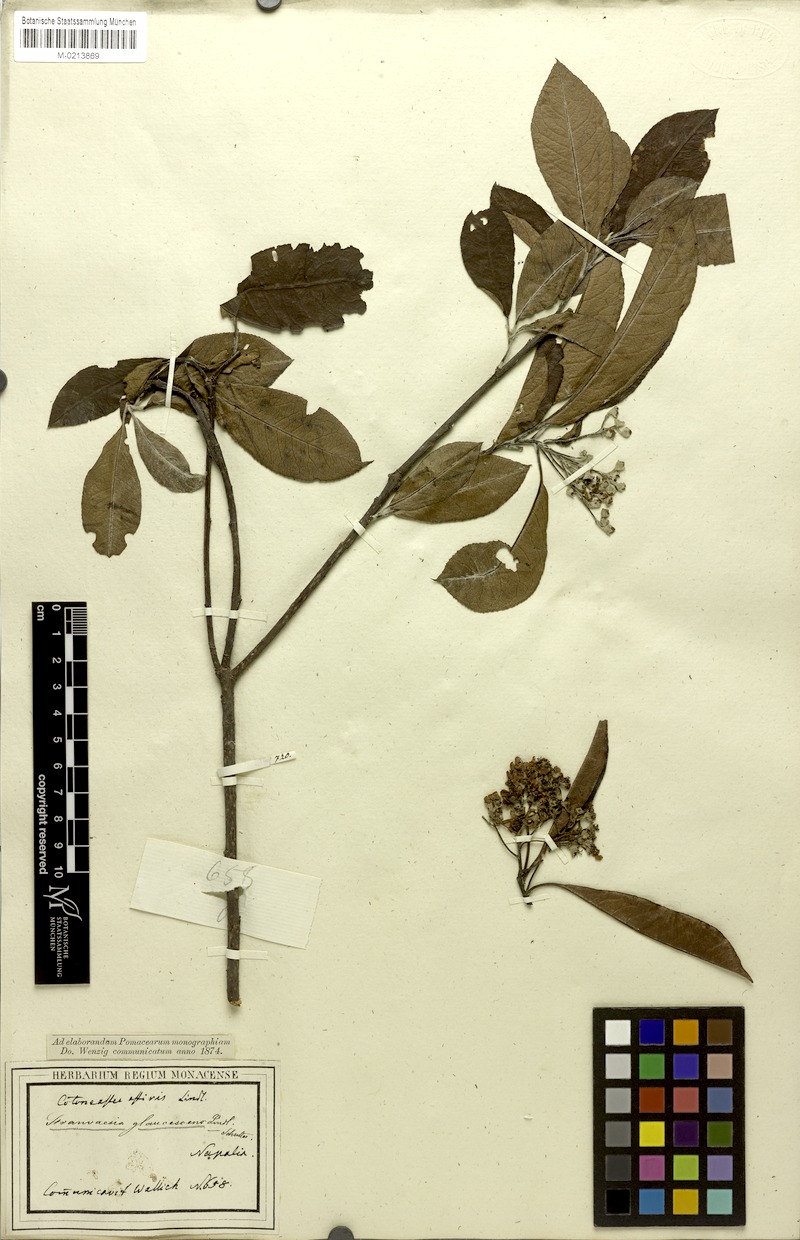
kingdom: Plantae
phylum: Tracheophyta
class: Magnoliopsida
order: Rosales
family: Rosaceae
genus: Stranvaesia
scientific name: Stranvaesia nussia
